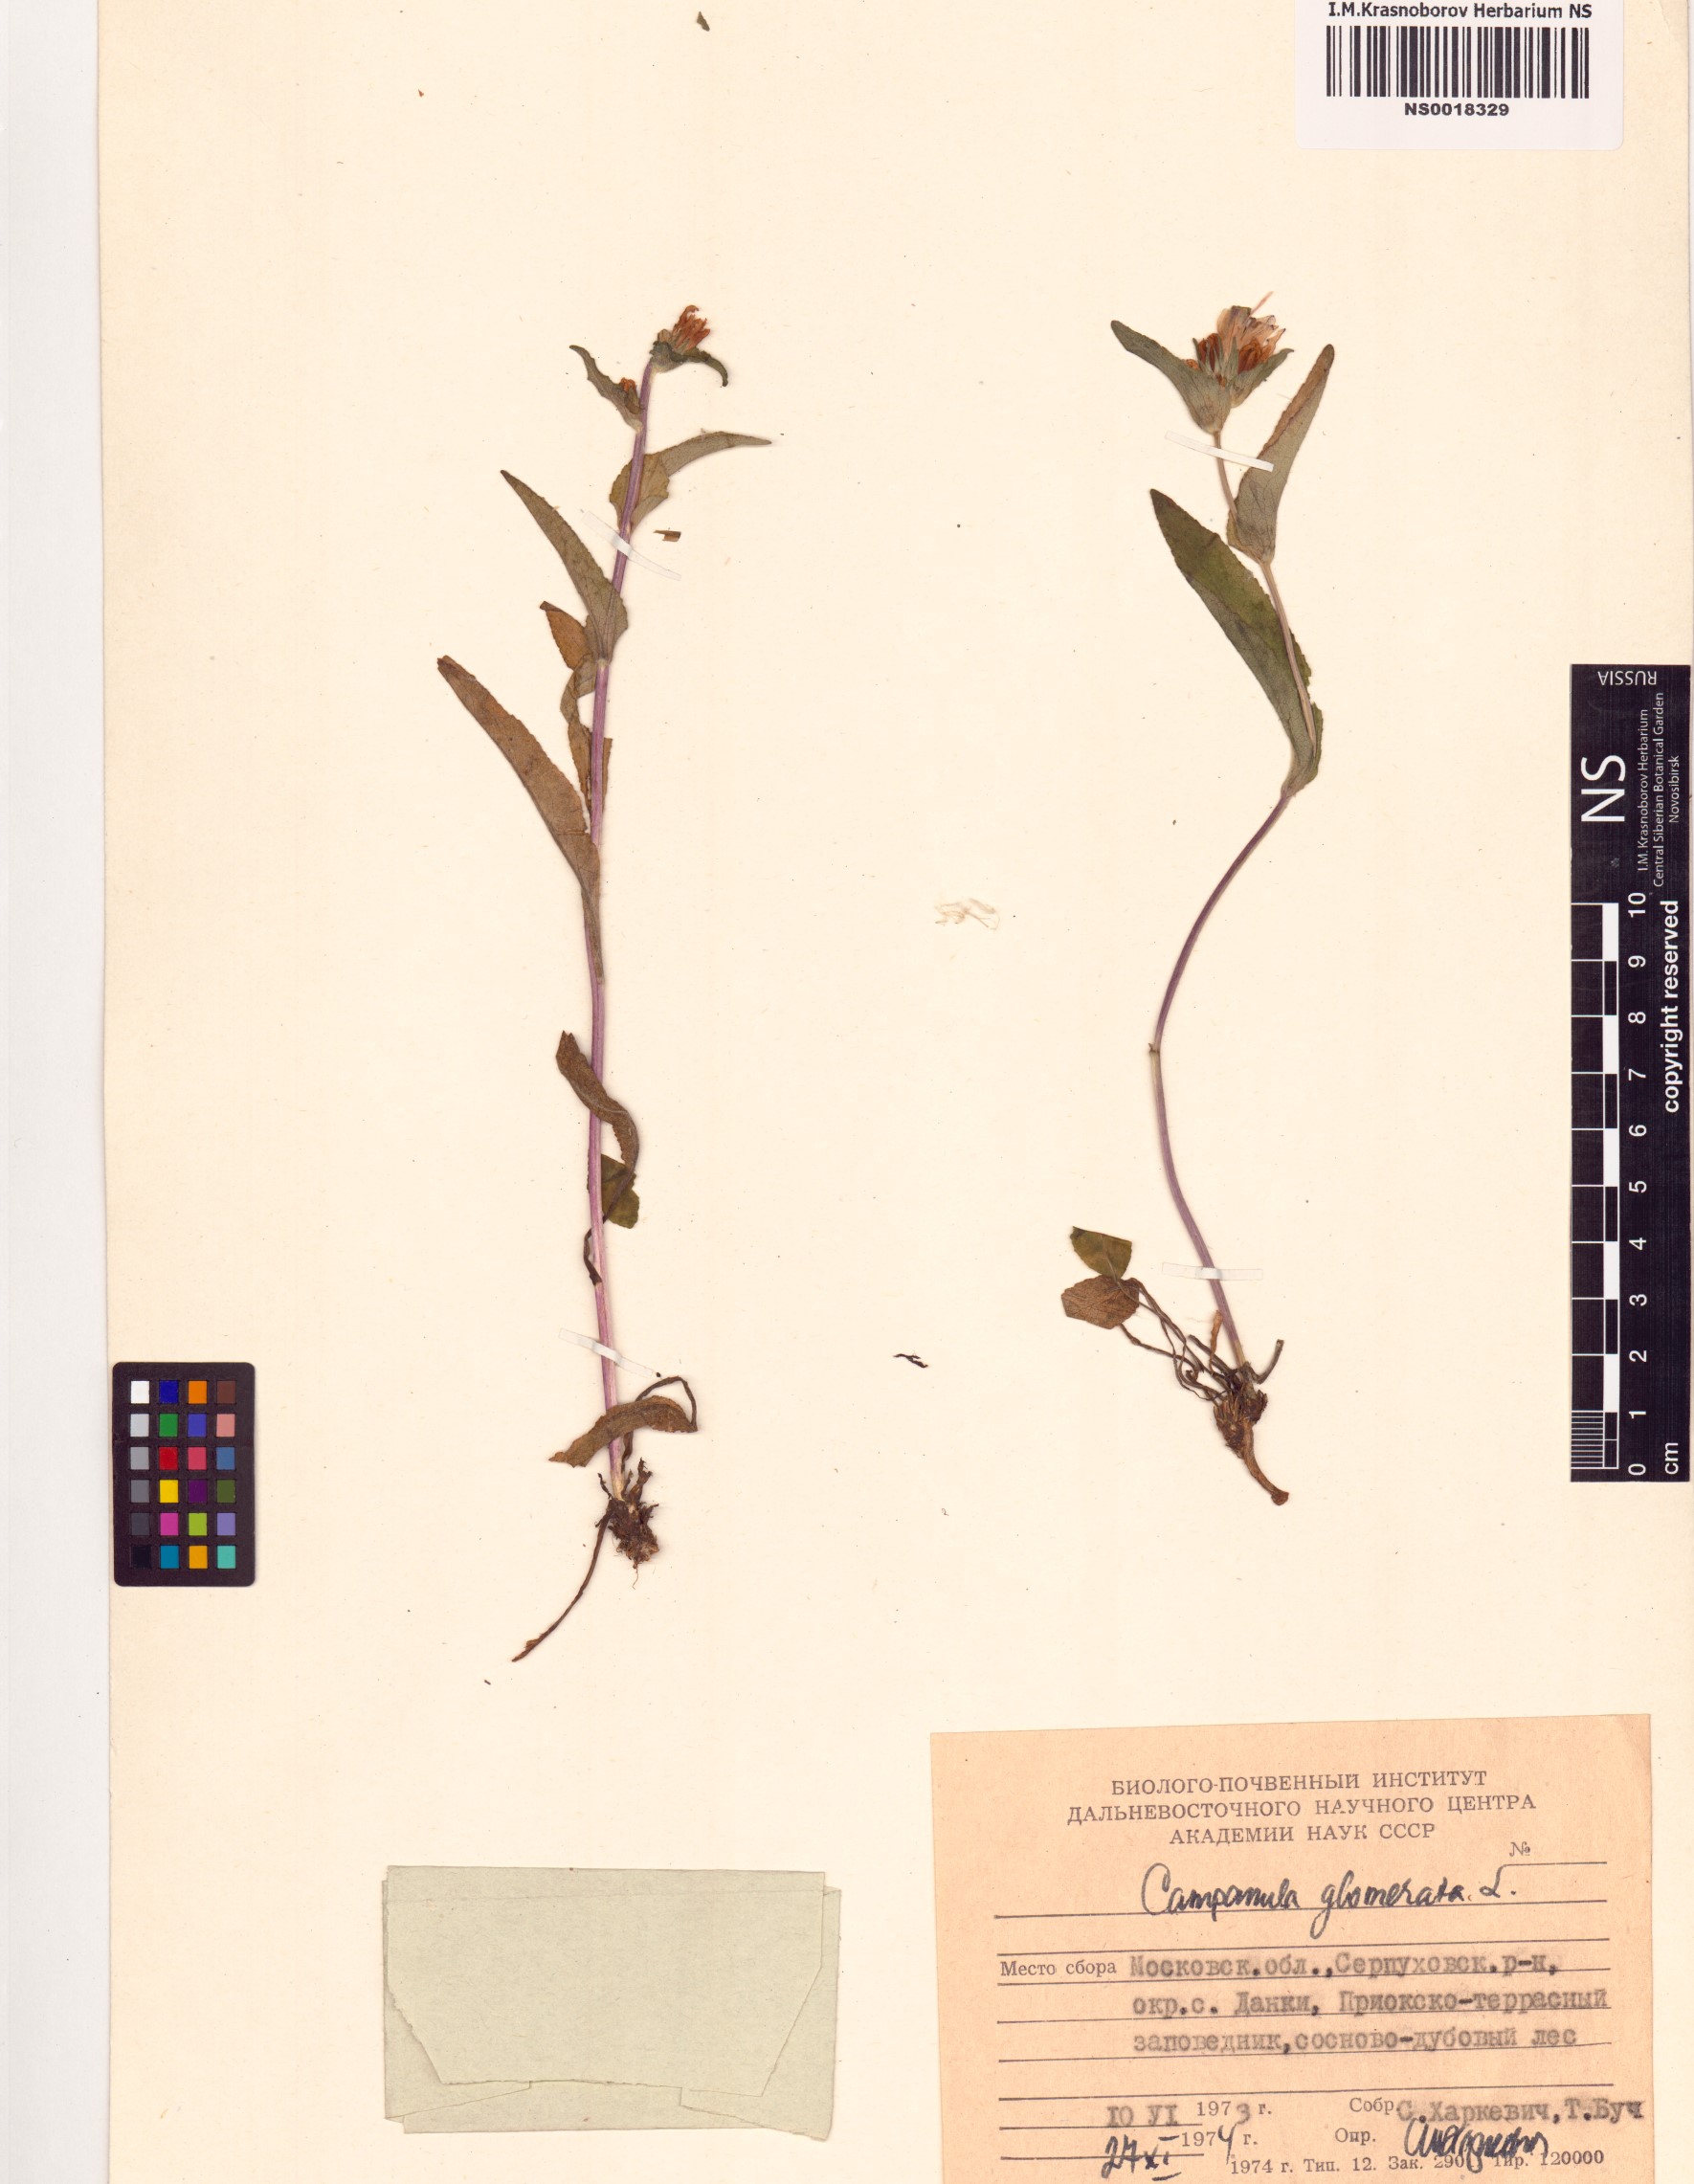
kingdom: Plantae
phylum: Tracheophyta
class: Magnoliopsida
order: Asterales
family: Campanulaceae
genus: Campanula
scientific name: Campanula glomerata
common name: Clustered bellflower
